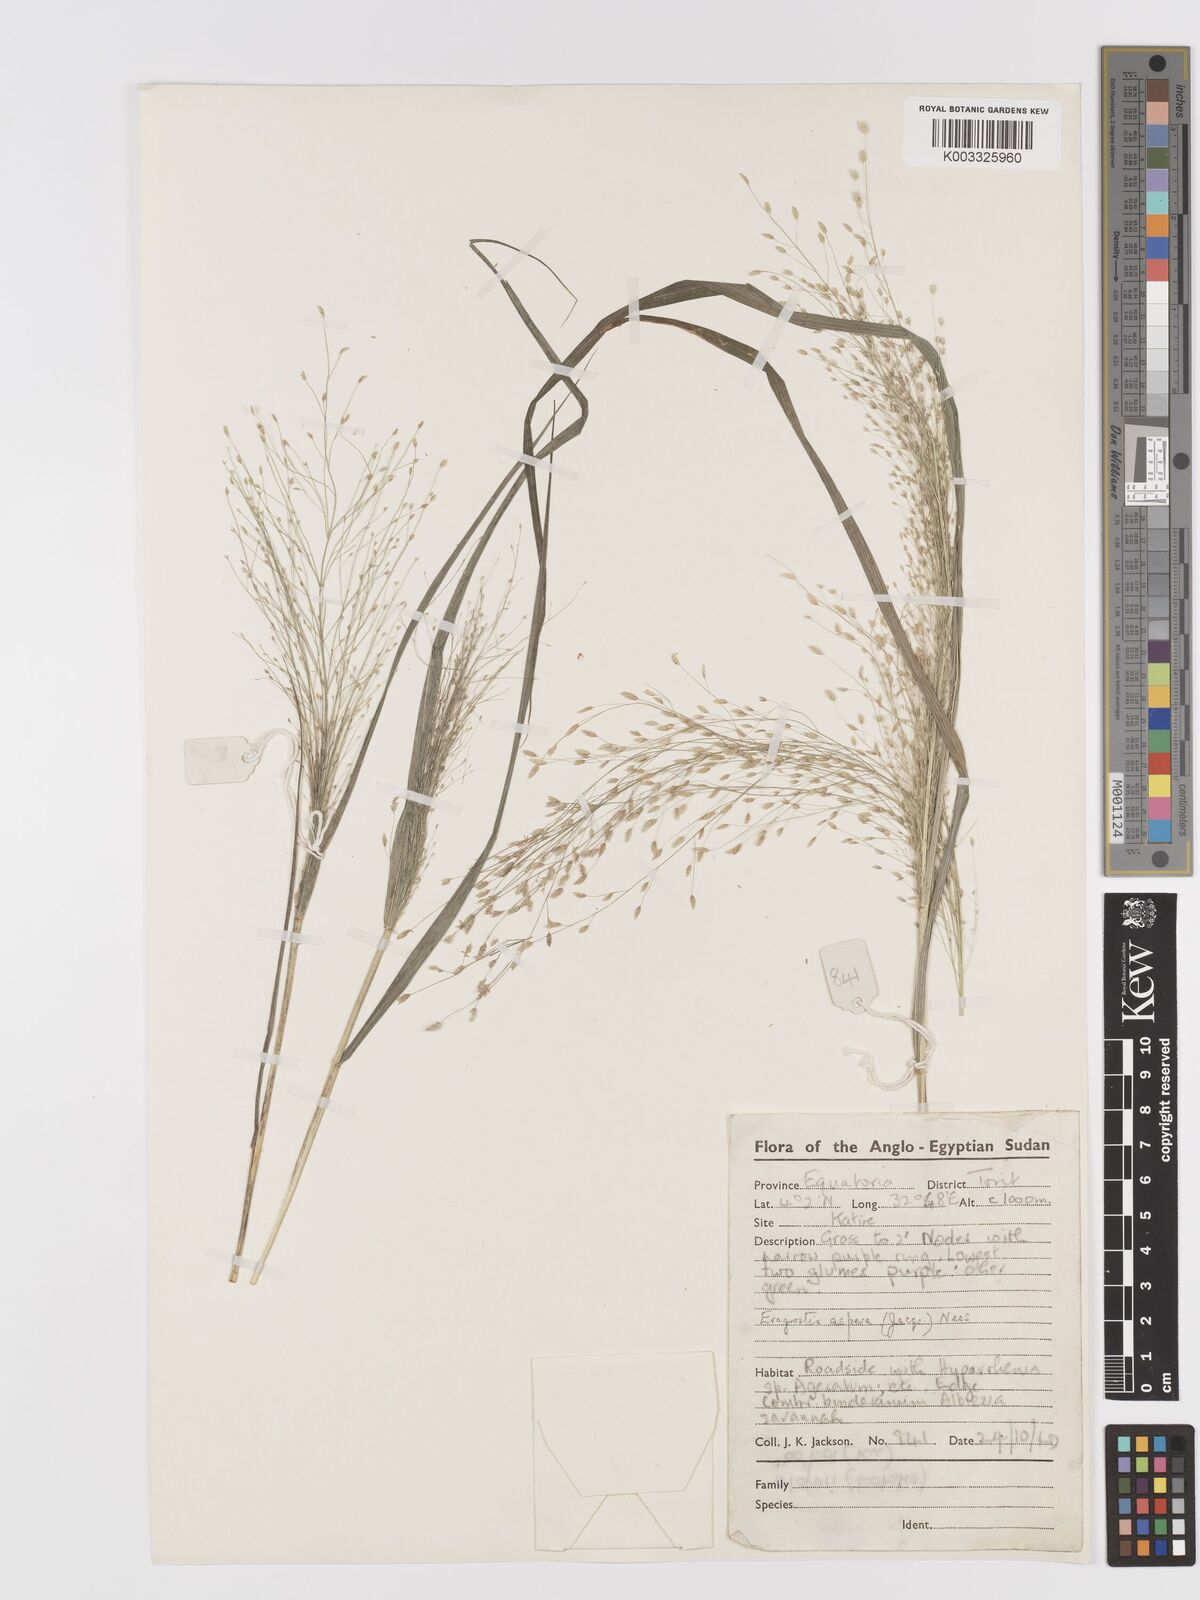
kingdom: Plantae
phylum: Tracheophyta
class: Liliopsida
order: Poales
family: Poaceae
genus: Eragrostis
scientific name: Eragrostis aspera
